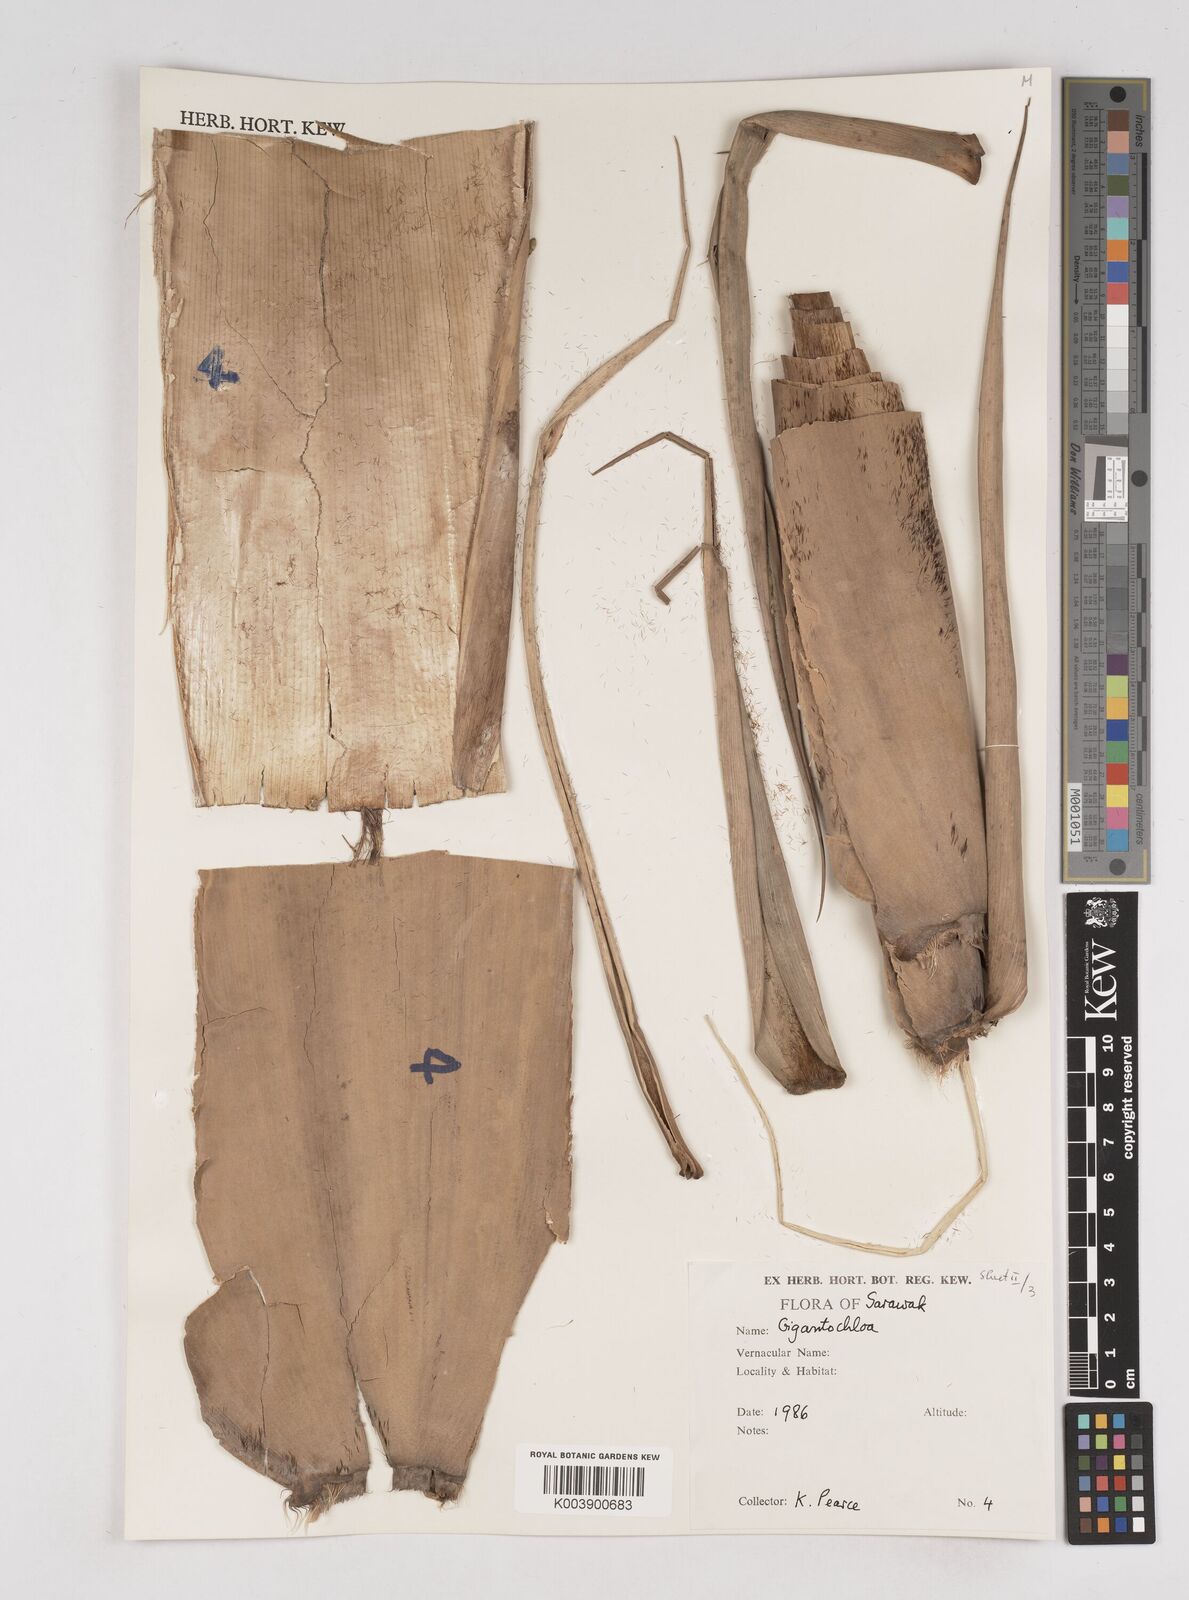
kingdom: Plantae
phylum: Tracheophyta
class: Liliopsida
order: Poales
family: Poaceae
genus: Gigantochloa
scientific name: Gigantochloa
